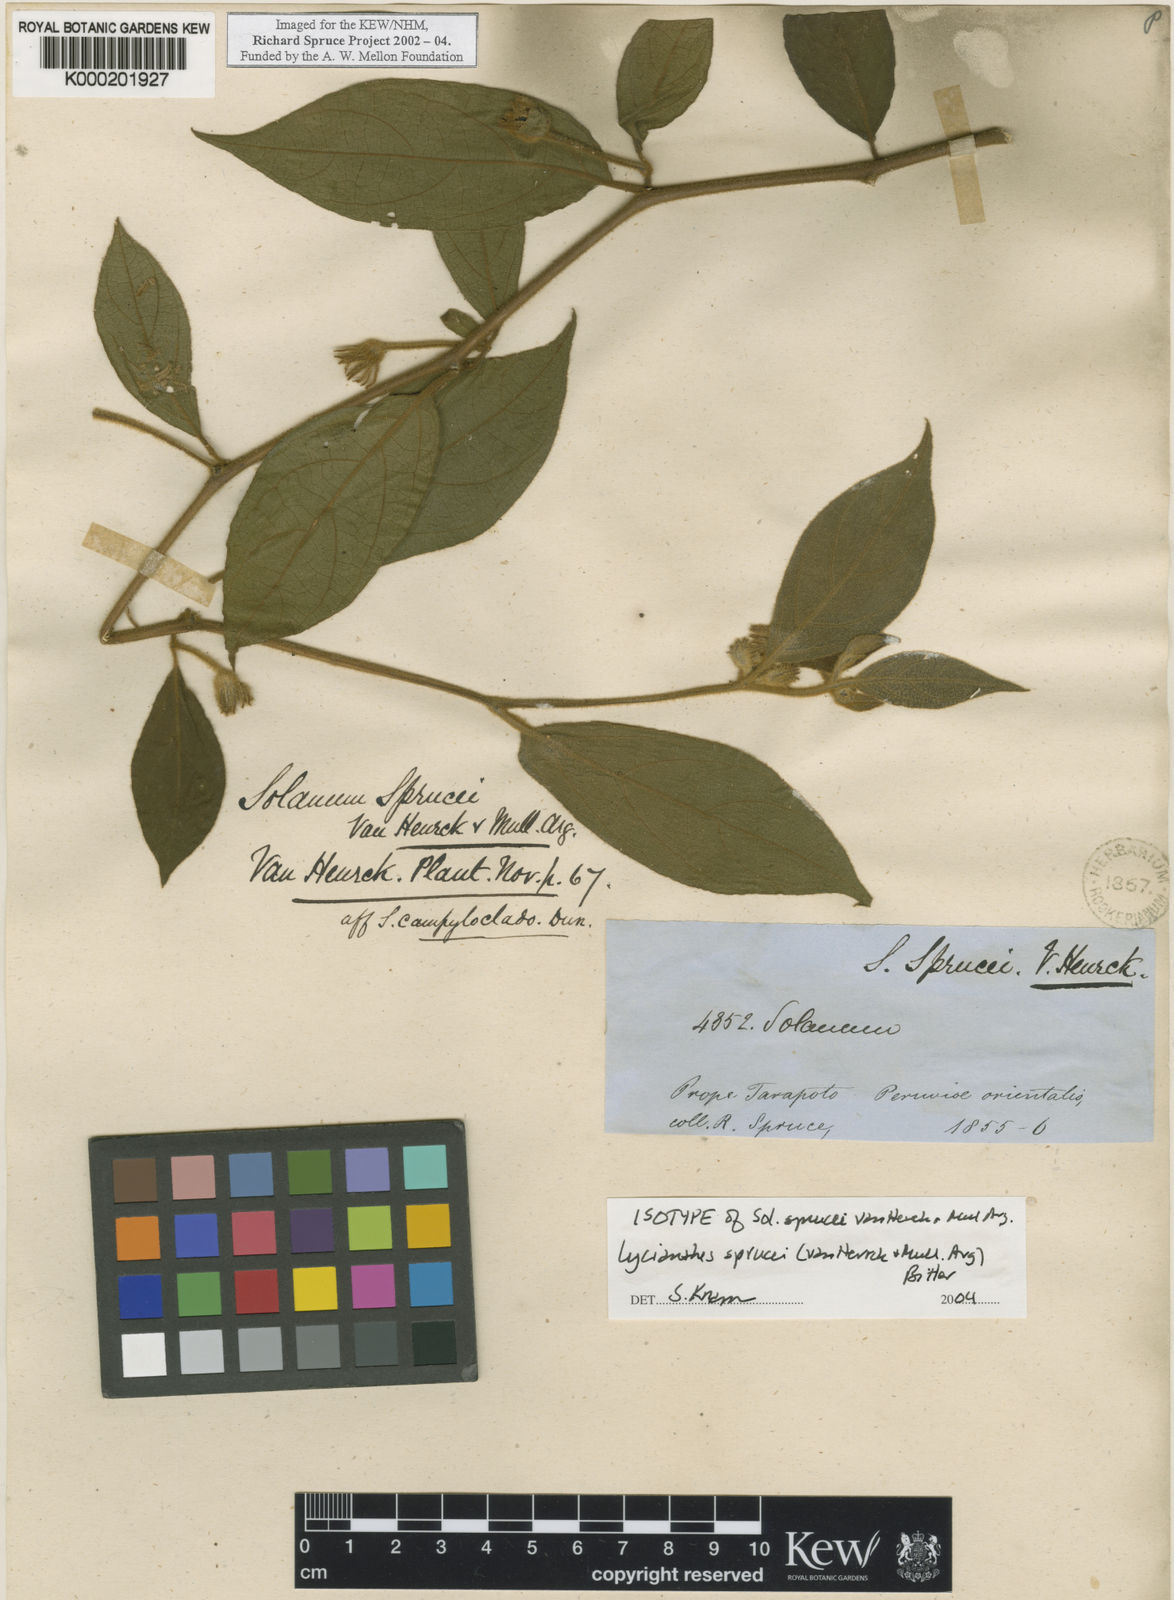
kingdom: Plantae
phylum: Tracheophyta
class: Magnoliopsida
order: Solanales
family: Solanaceae
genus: Lycianthes
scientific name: Lycianthes
